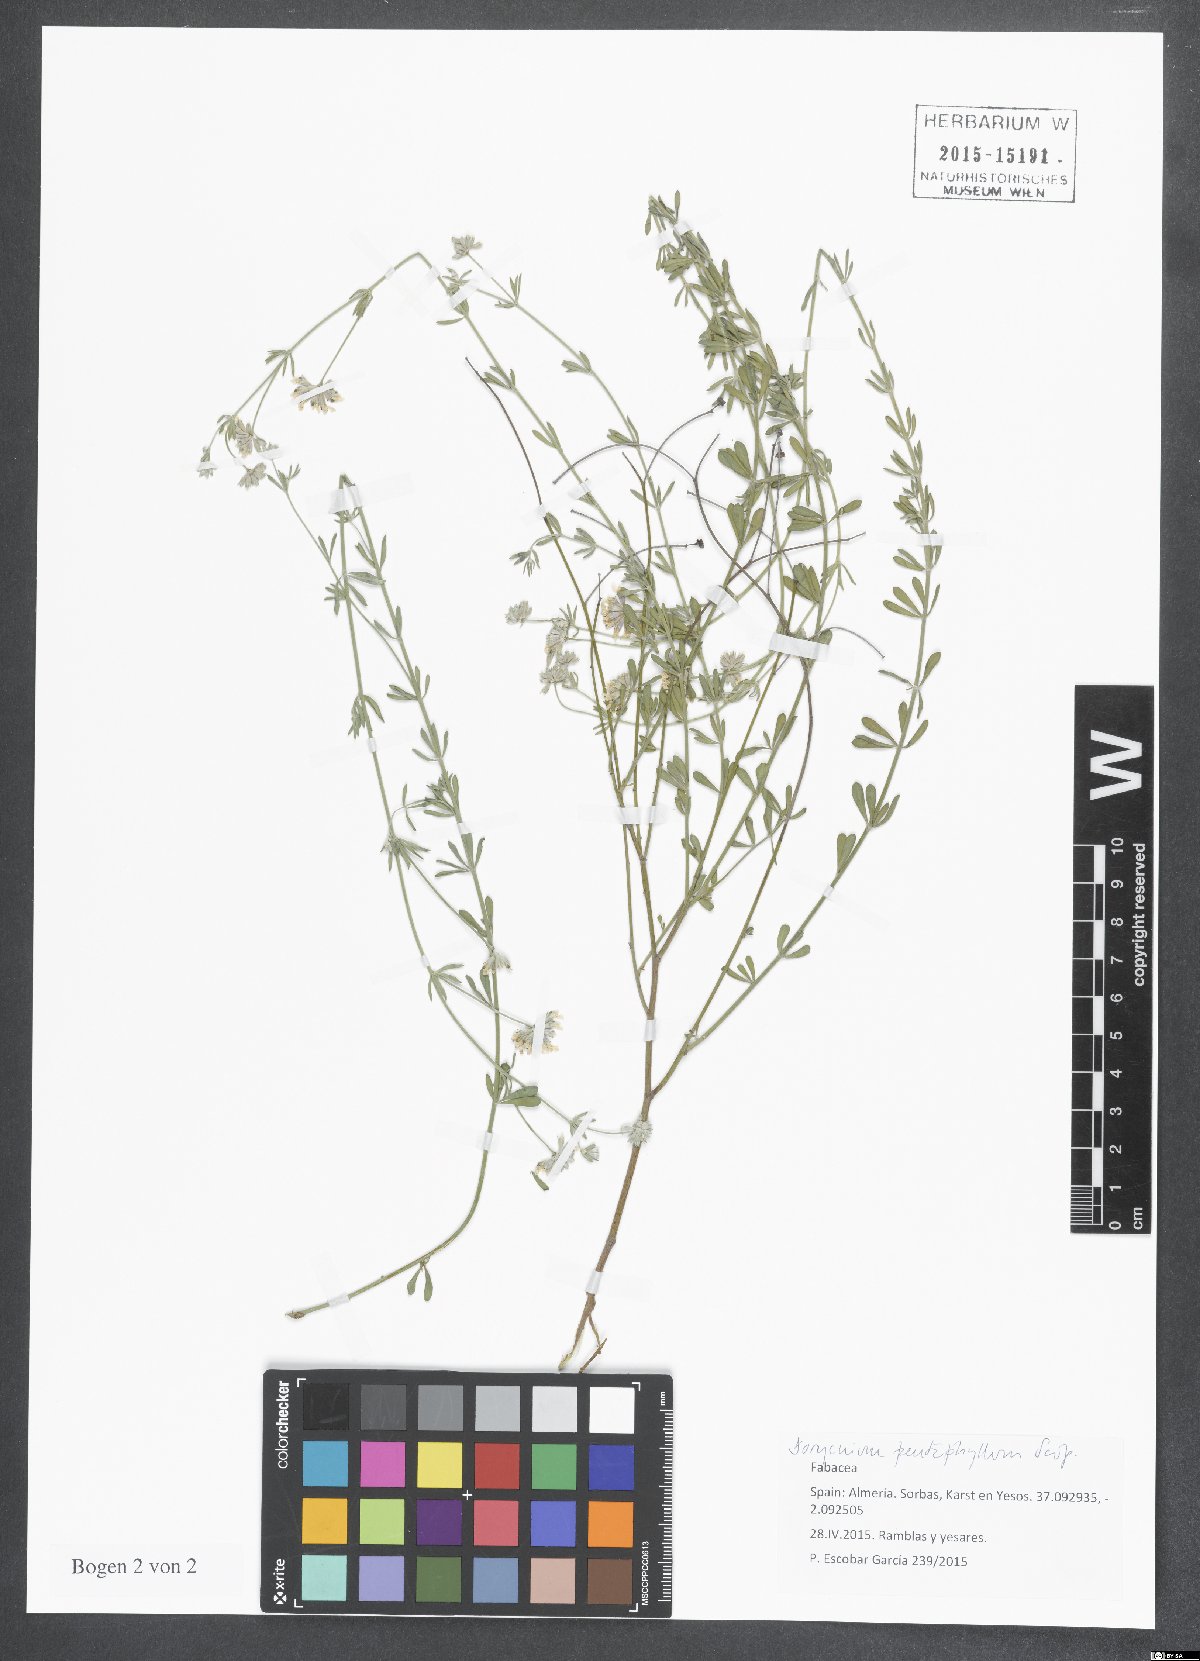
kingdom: Plantae
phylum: Tracheophyta
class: Magnoliopsida
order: Fabales
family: Fabaceae
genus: Lotus
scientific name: Lotus dorycnium
